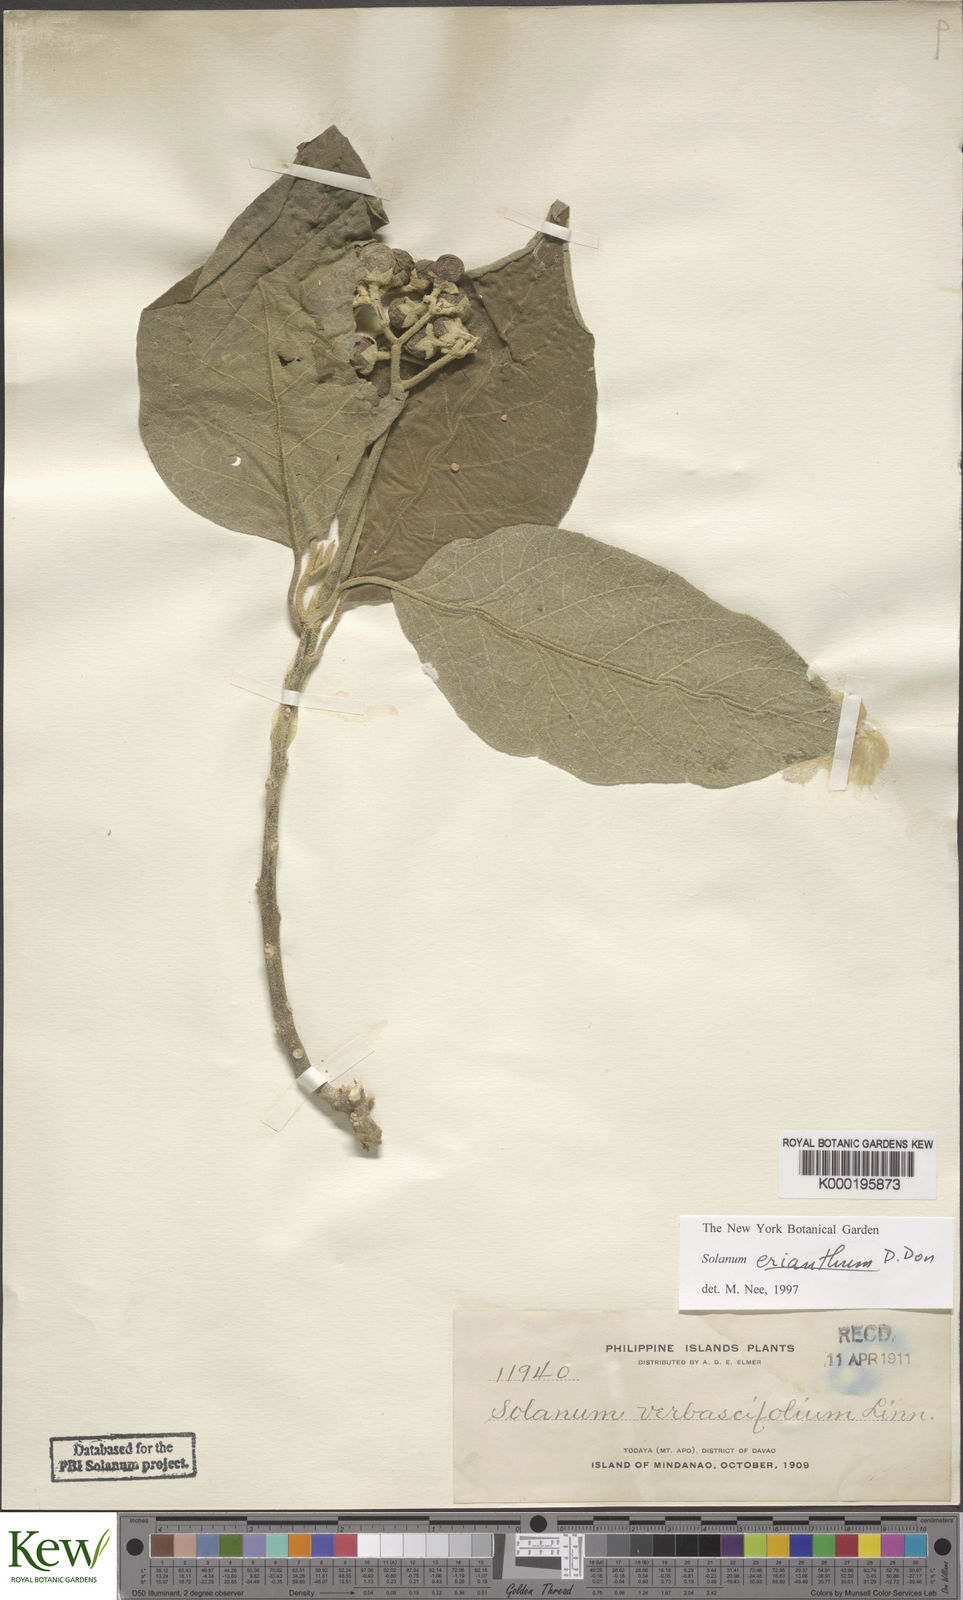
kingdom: Plantae
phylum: Tracheophyta
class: Magnoliopsida
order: Solanales
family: Solanaceae
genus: Solanum
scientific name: Solanum erianthum
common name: Tobacco-tree
